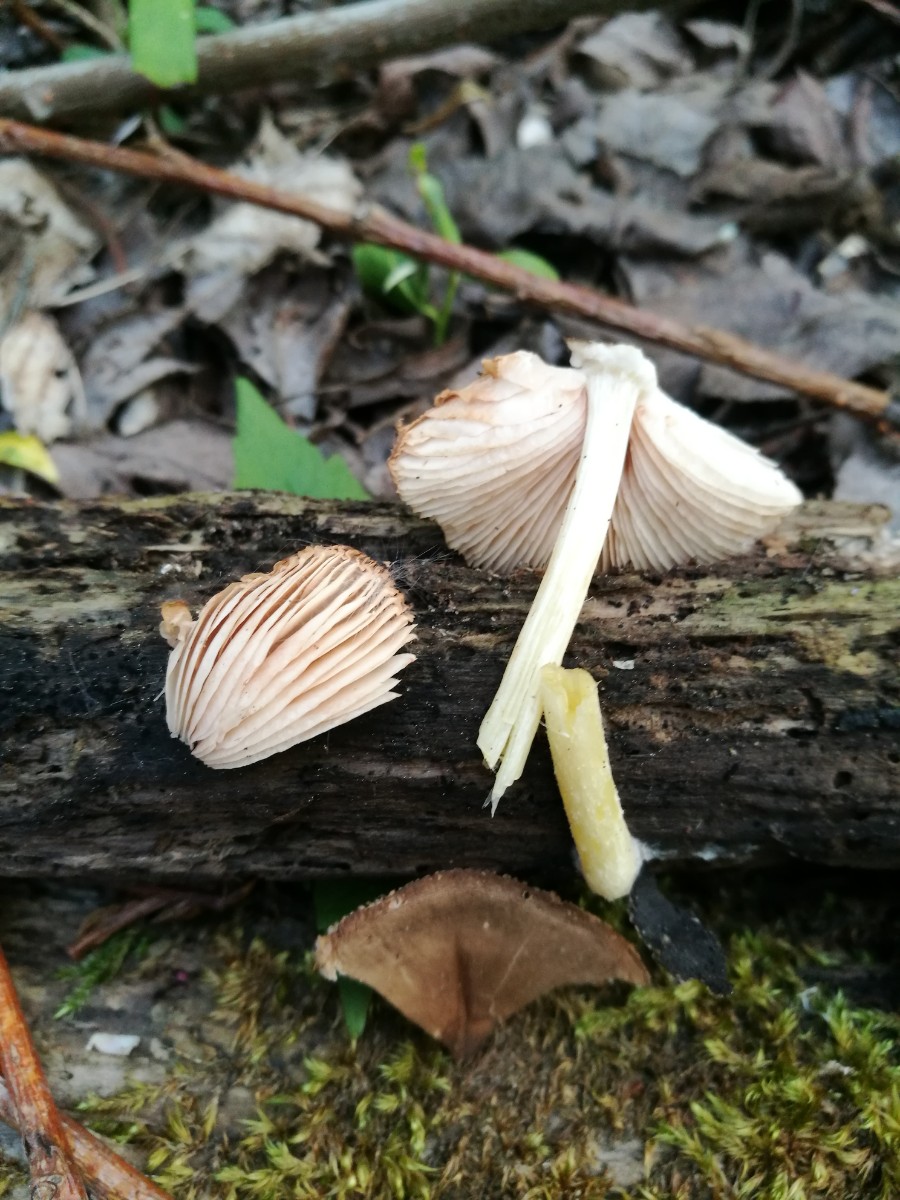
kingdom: Fungi
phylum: Basidiomycota
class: Agaricomycetes
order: Agaricales
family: Pluteaceae
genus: Pluteus
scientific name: Pluteus romellii
